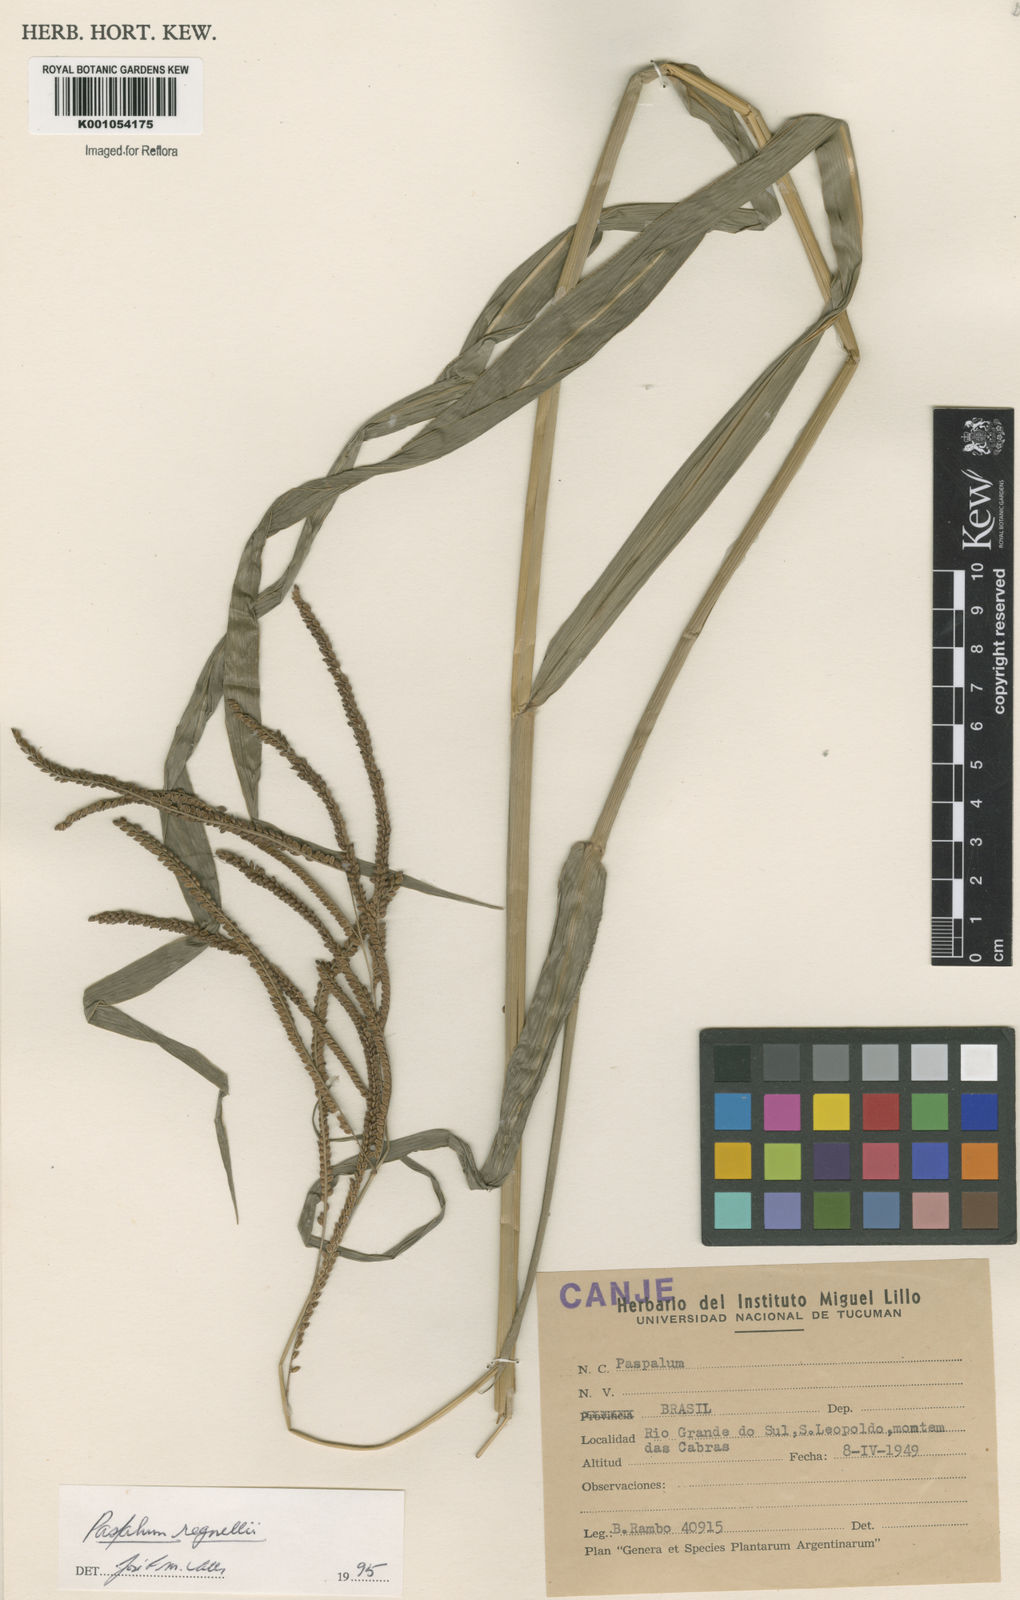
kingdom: Plantae
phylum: Tracheophyta
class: Liliopsida
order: Poales
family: Poaceae
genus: Paspalum
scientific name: Paspalum regnellii
